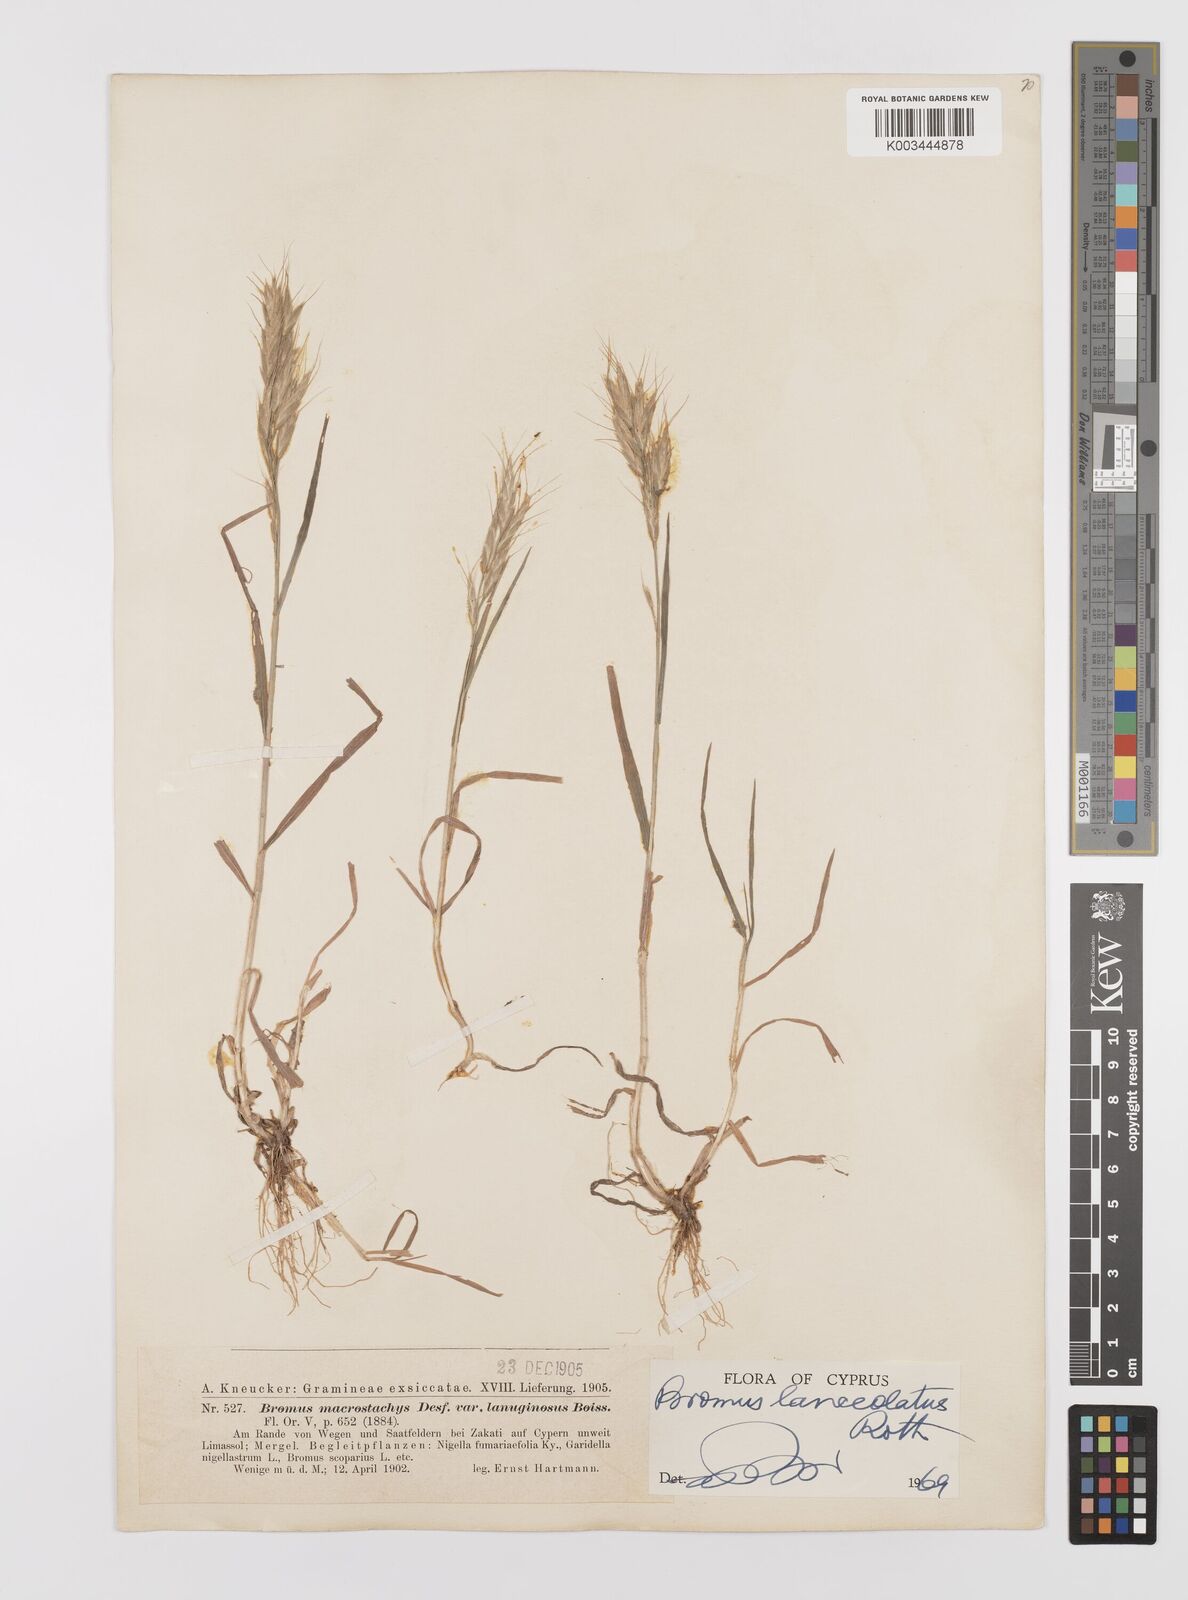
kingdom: Plantae
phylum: Tracheophyta
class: Liliopsida
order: Poales
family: Poaceae
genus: Bromus
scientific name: Bromus lanceolatus
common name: Mediterranean brome
